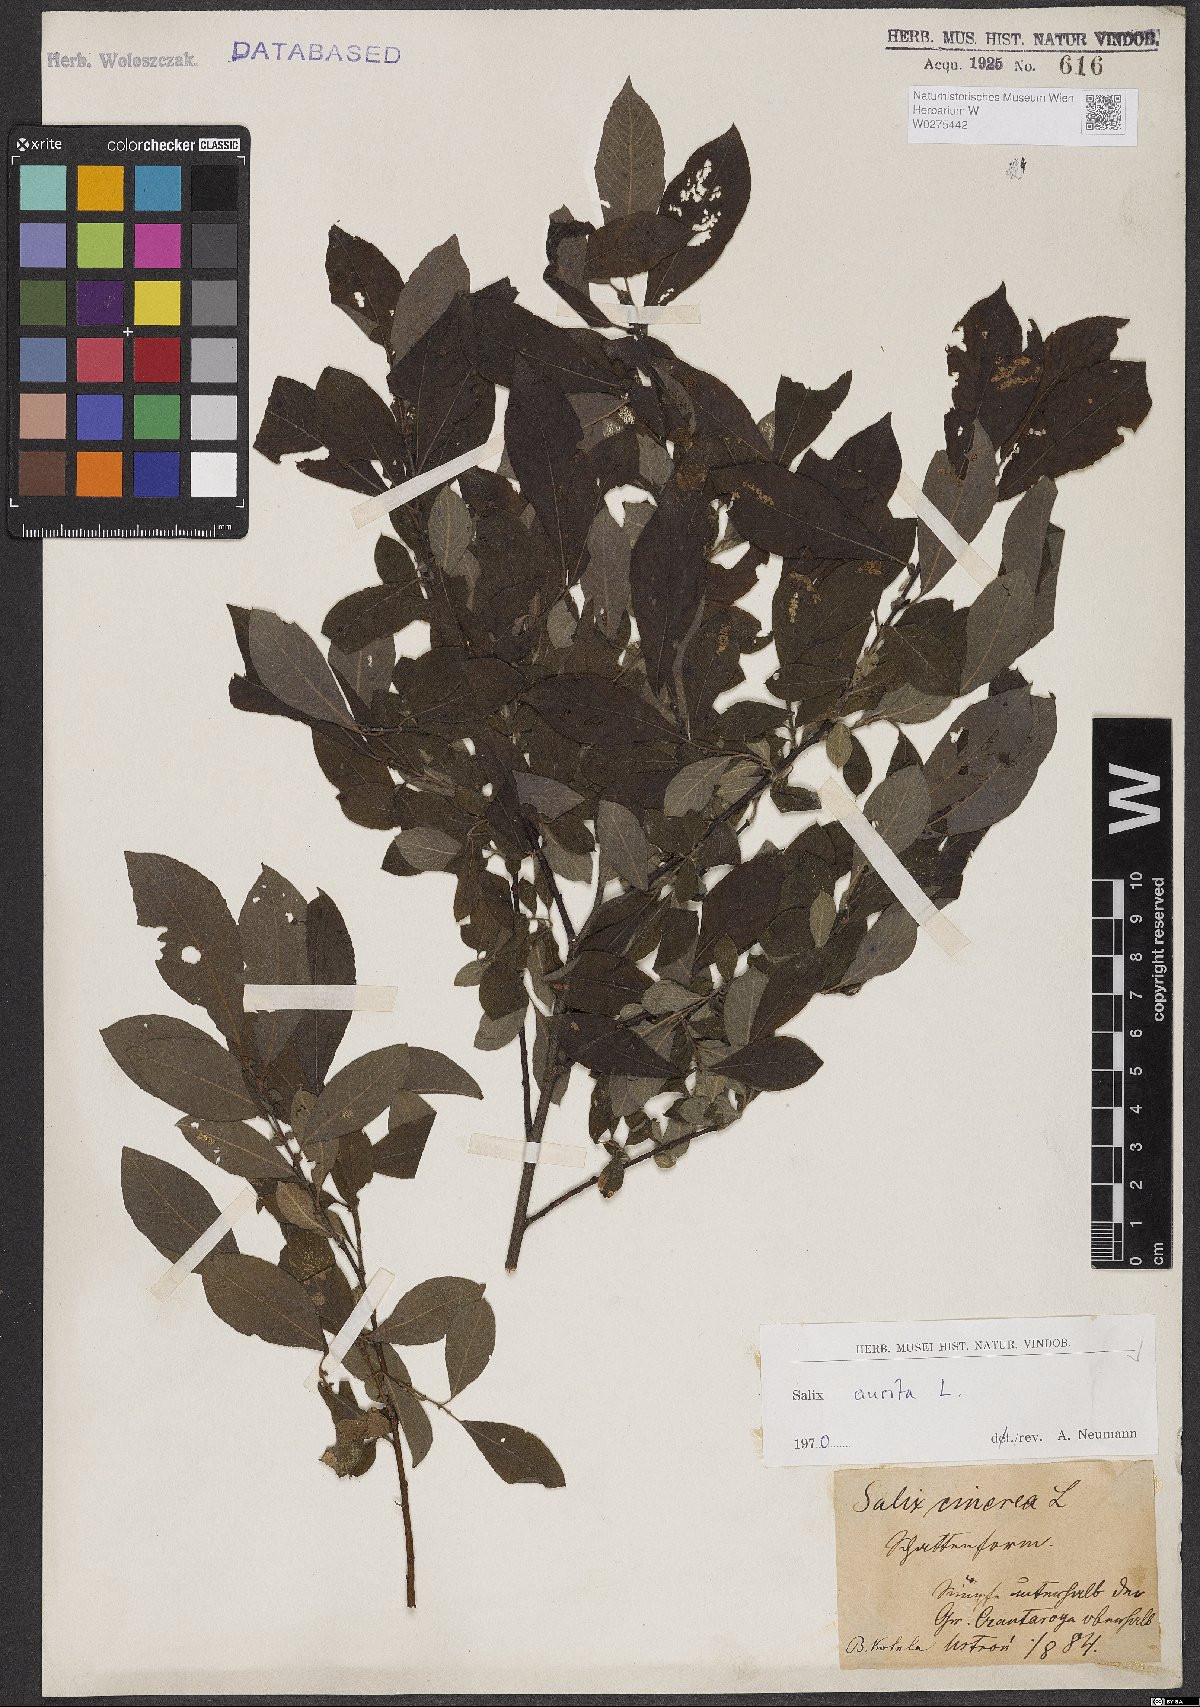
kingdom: Plantae
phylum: Tracheophyta
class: Magnoliopsida
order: Malpighiales
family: Salicaceae
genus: Salix
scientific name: Salix aurita
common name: Eared willow
